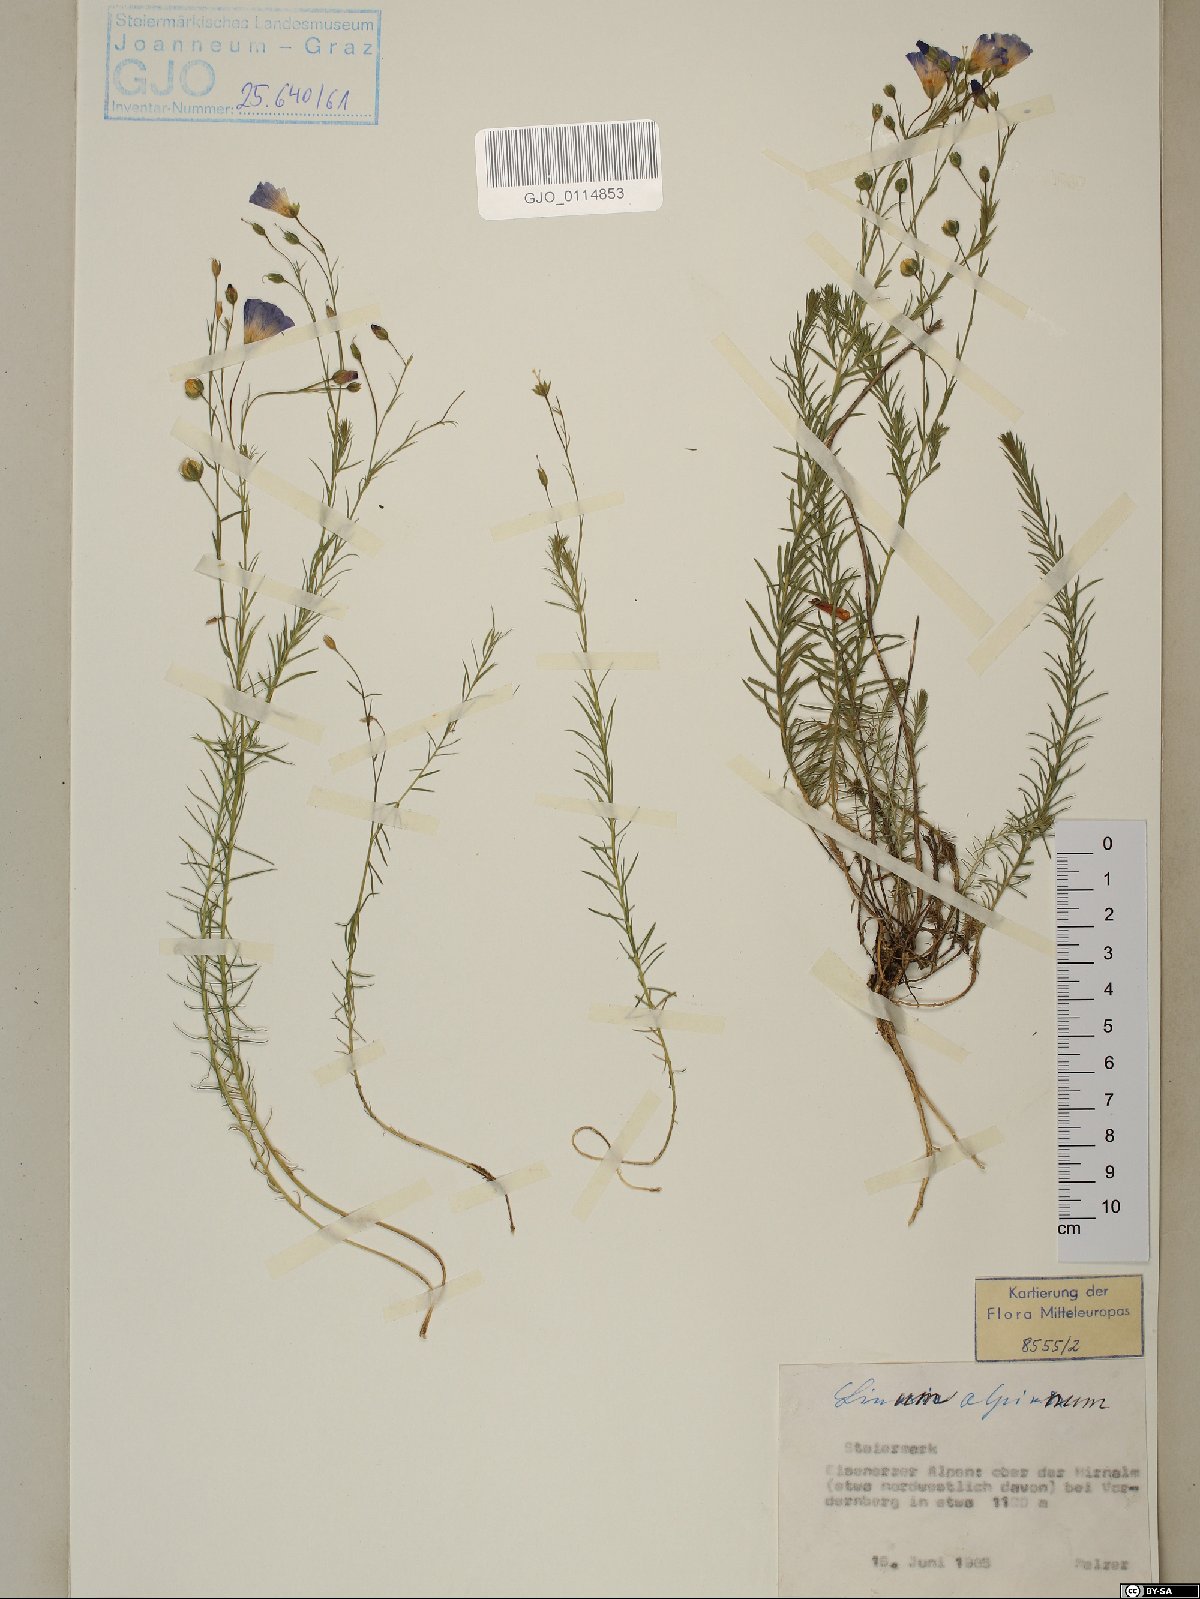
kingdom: Plantae
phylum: Tracheophyta
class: Magnoliopsida
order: Malpighiales
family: Linaceae
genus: Linum
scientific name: Linum alpinum
